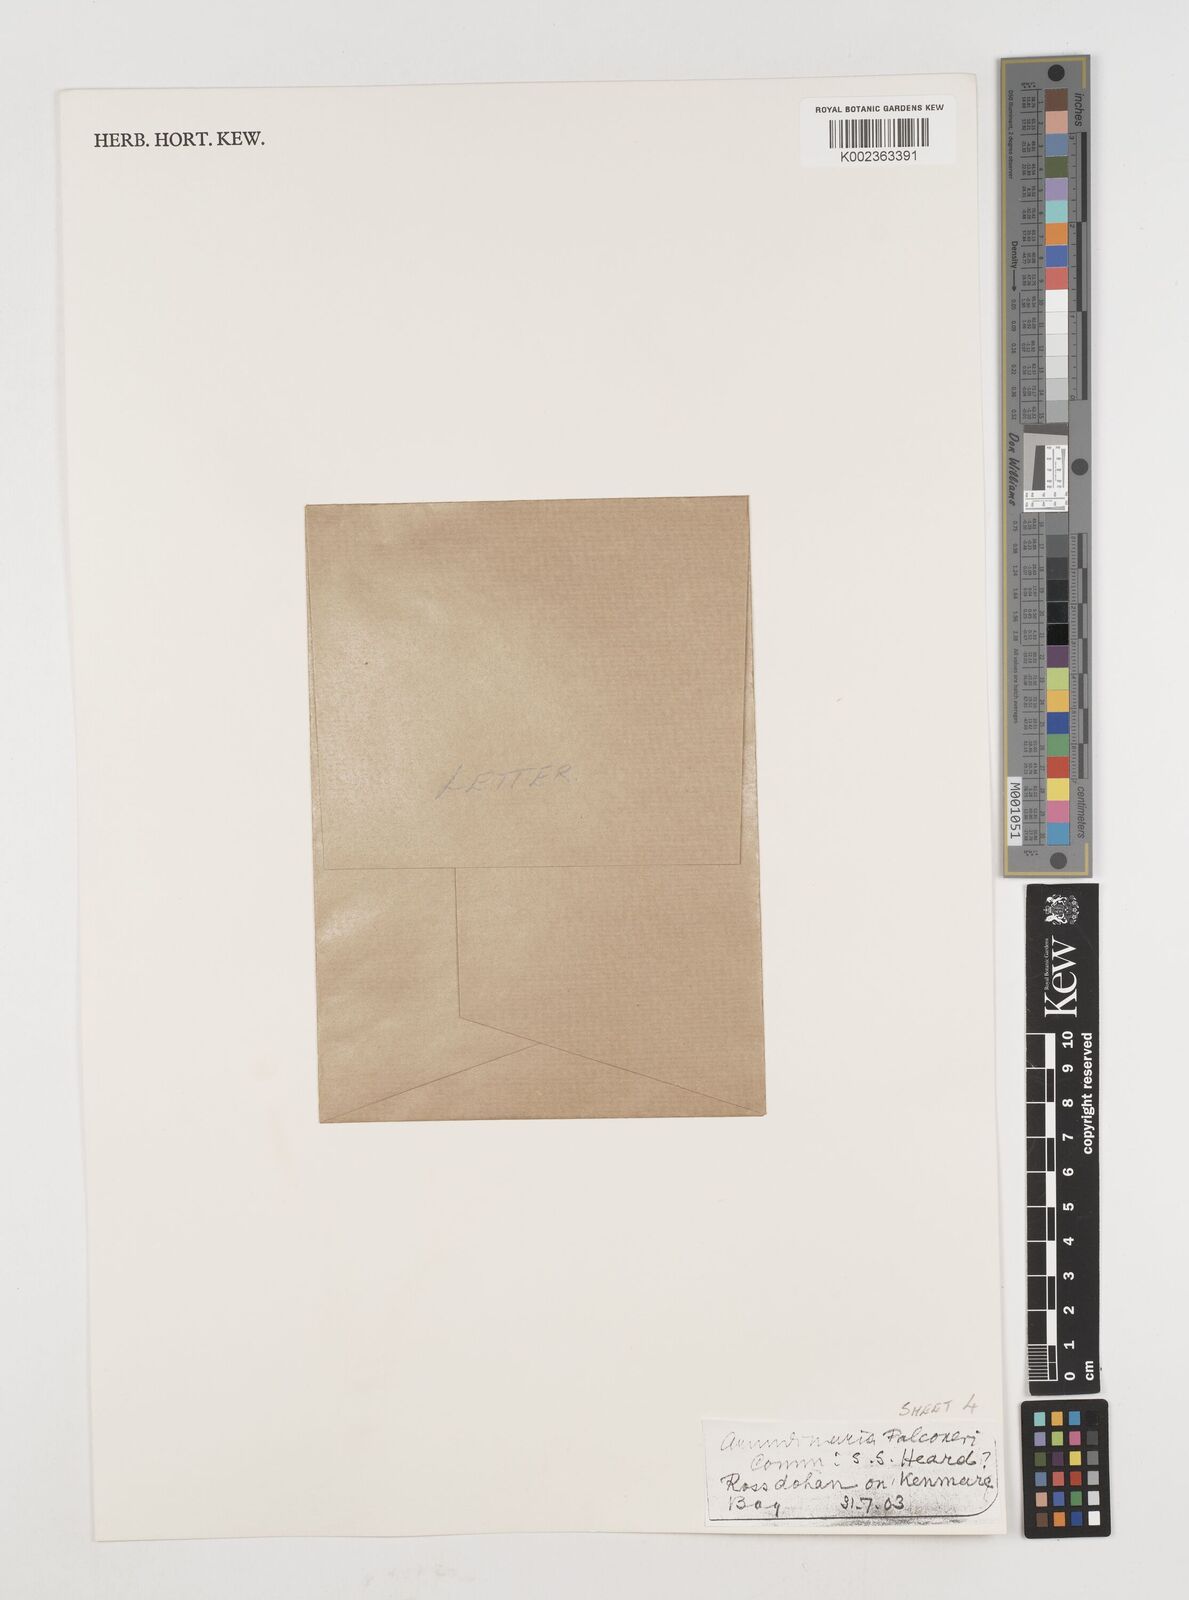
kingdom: Plantae
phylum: Tracheophyta
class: Liliopsida
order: Poales
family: Poaceae
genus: Himalayacalamus
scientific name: Himalayacalamus
